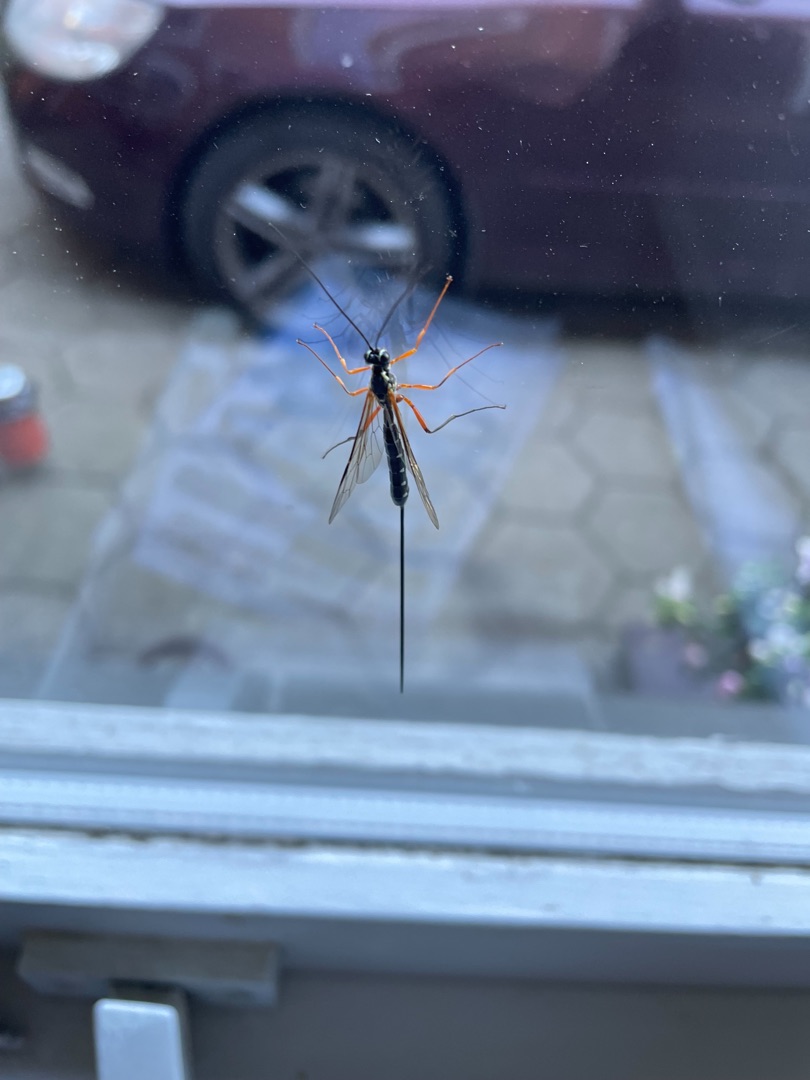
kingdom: Animalia
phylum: Arthropoda
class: Insecta
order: Hymenoptera
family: Ichneumonidae
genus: Rhyssa
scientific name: Rhyssa persuasoria
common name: Sabelhveps
